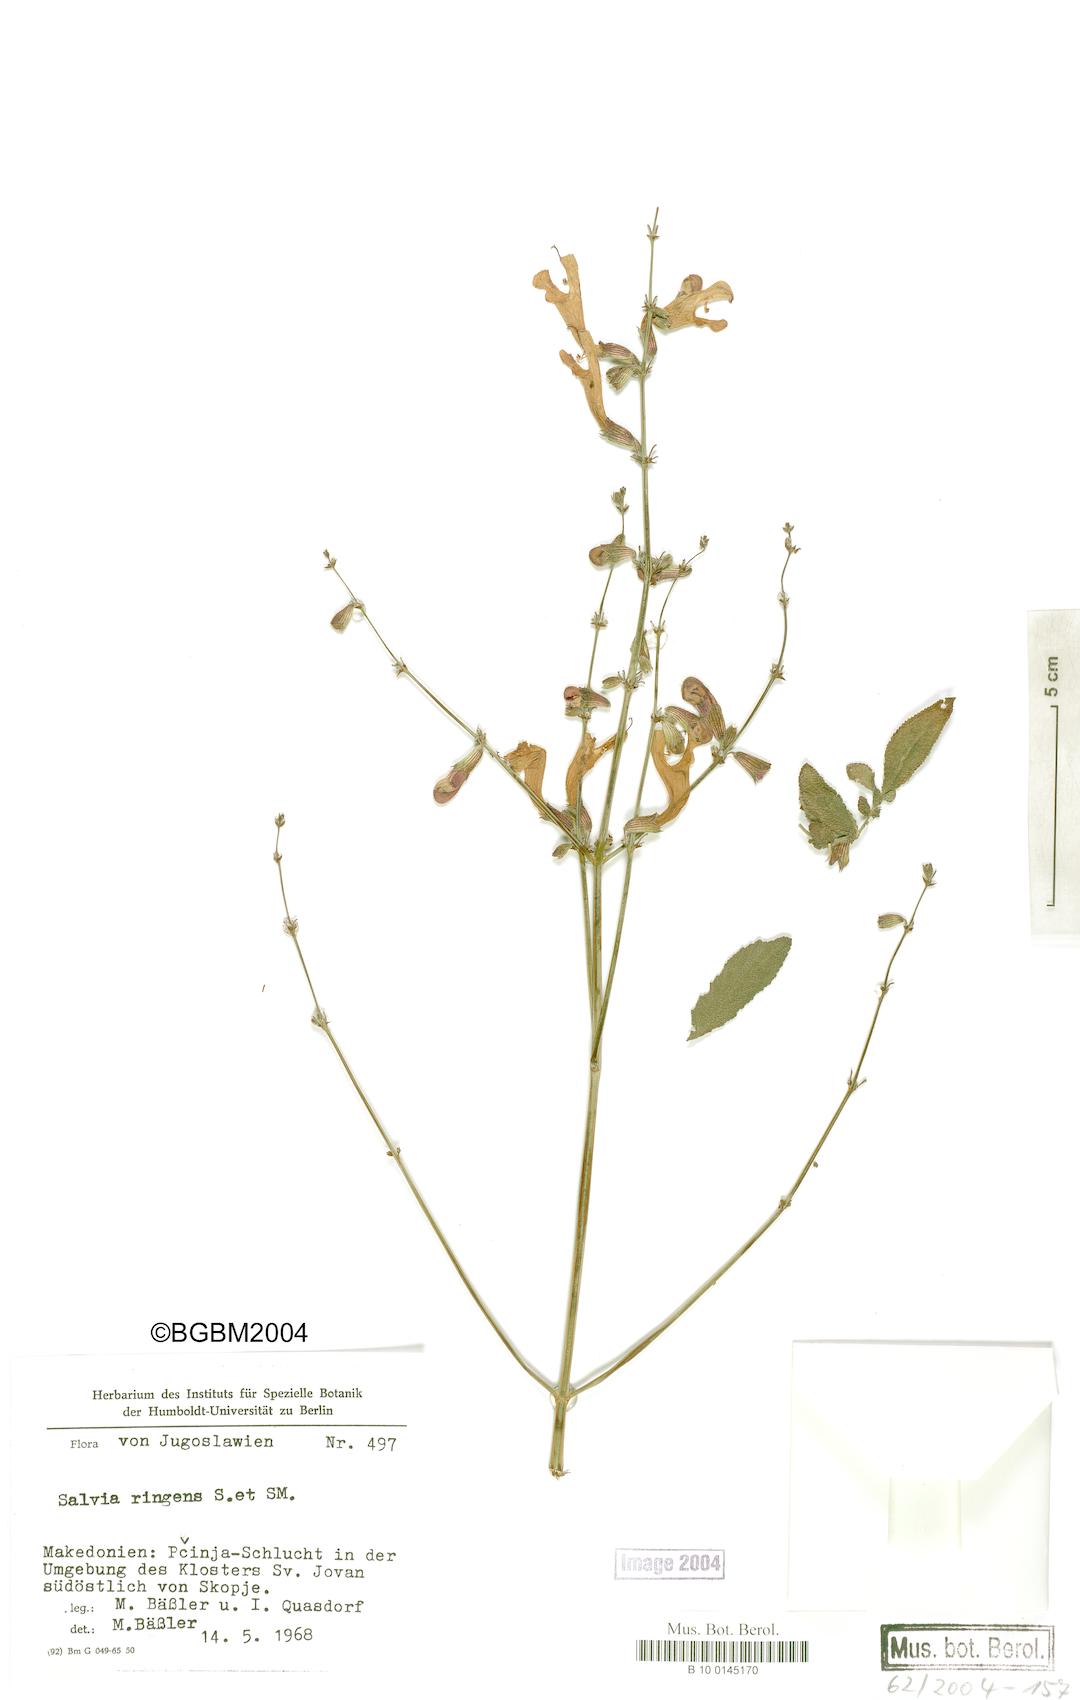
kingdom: Plantae
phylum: Tracheophyta
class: Magnoliopsida
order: Lamiales
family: Lamiaceae
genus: Salvia
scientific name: Salvia ringens
